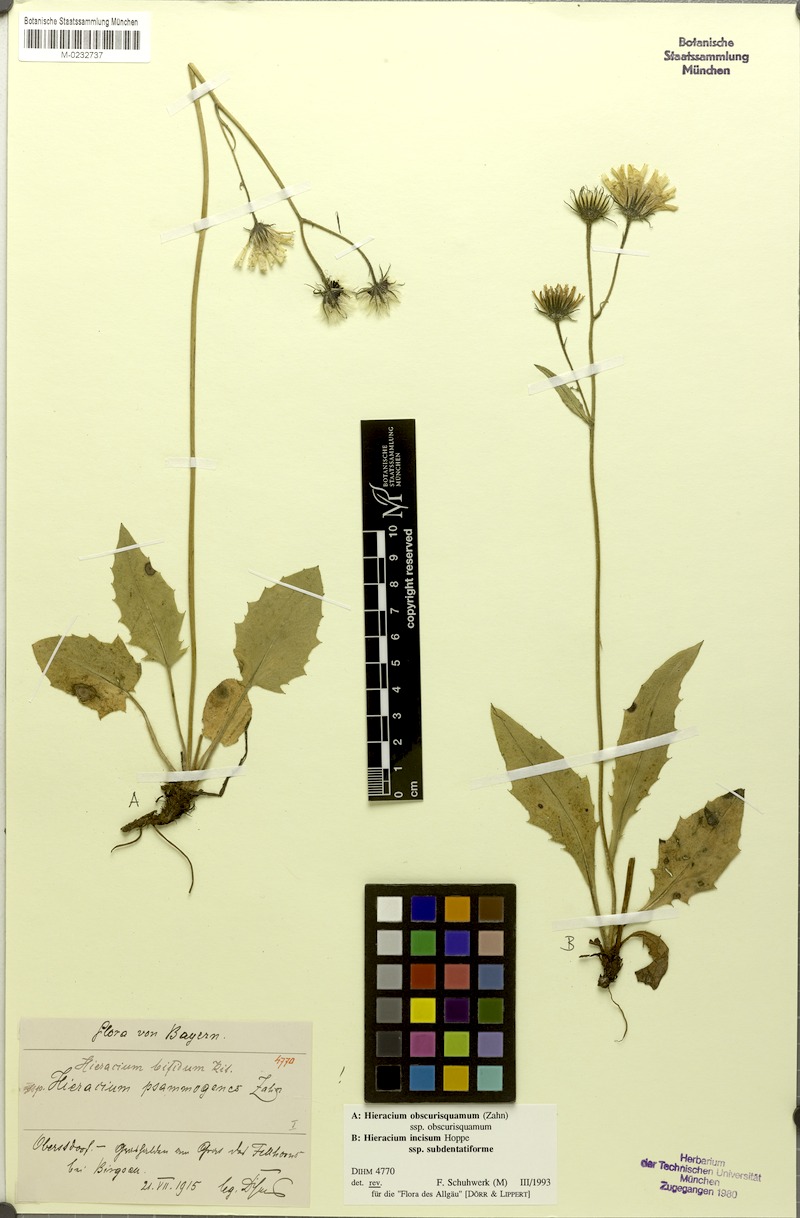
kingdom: Plantae
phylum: Tracheophyta
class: Magnoliopsida
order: Asterales
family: Asteraceae
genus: Hieracium
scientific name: Hieracium incisum
